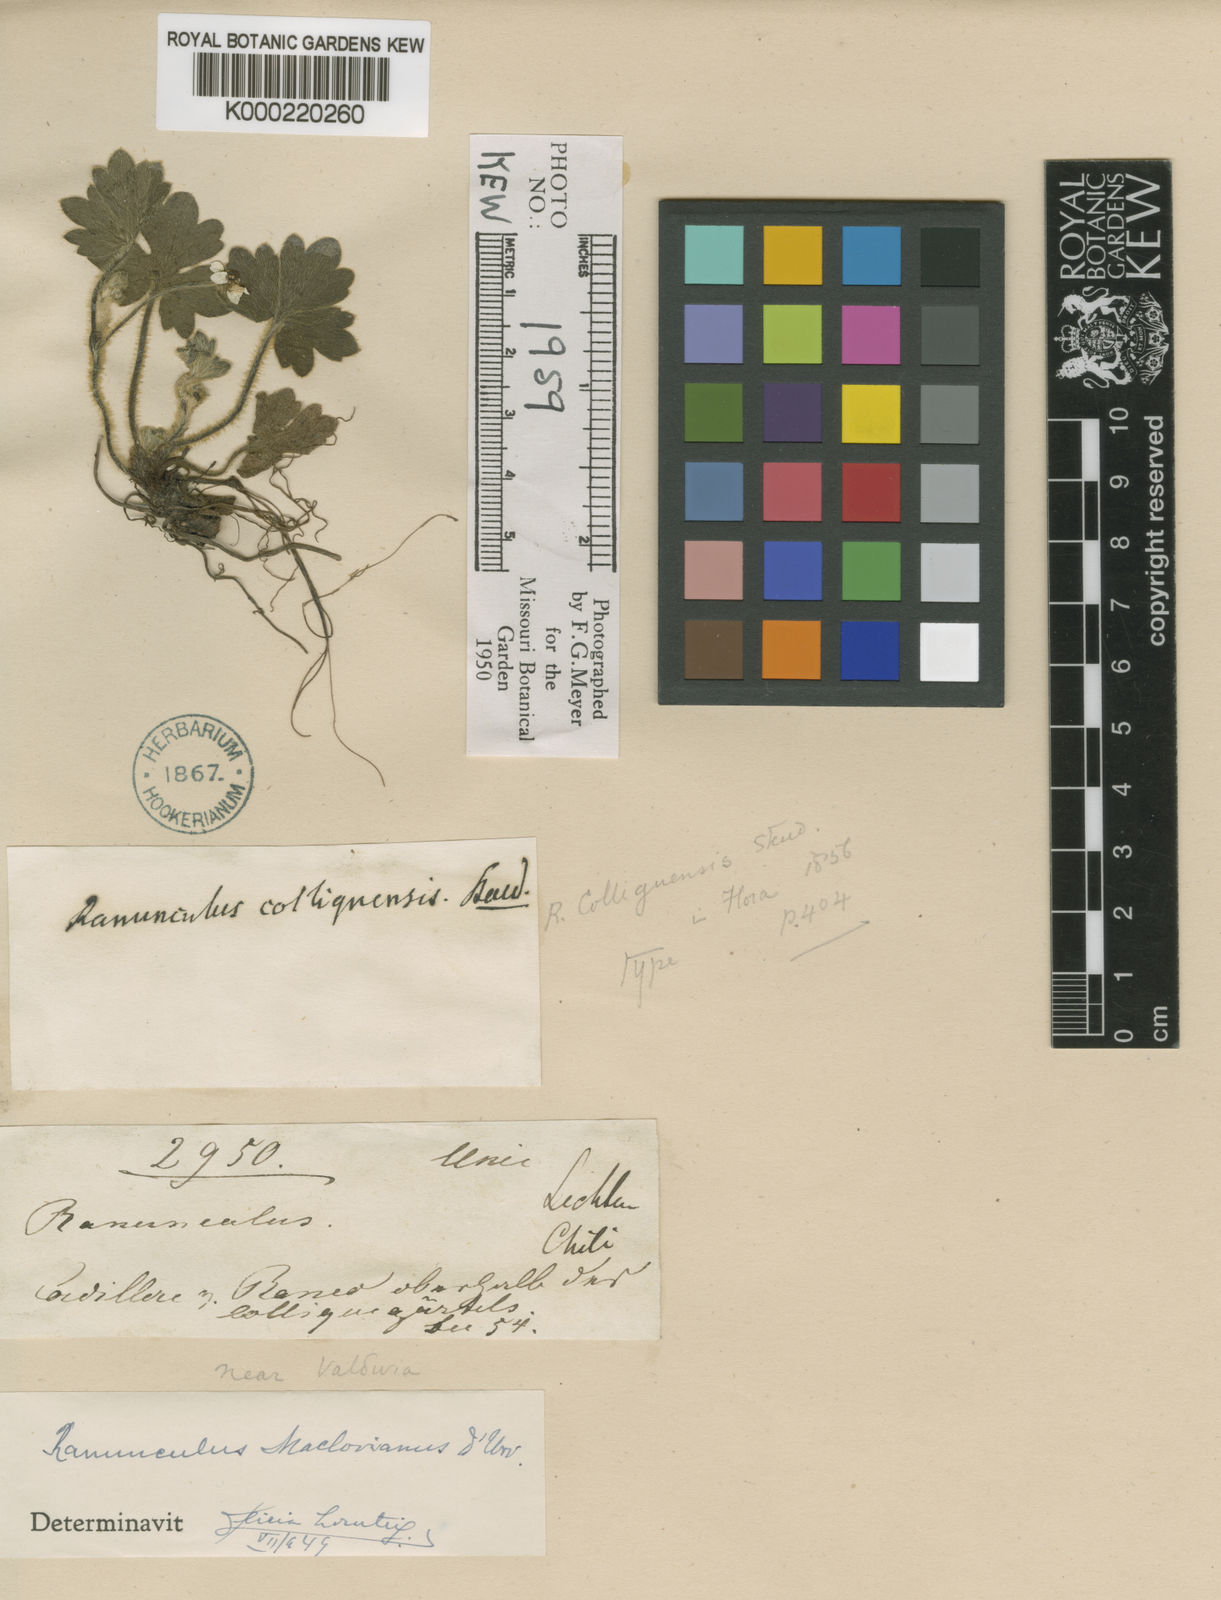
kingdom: Plantae
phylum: Tracheophyta
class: Magnoliopsida
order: Ranunculales
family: Ranunculaceae
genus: Ranunculus
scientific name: Ranunculus maclovianus
